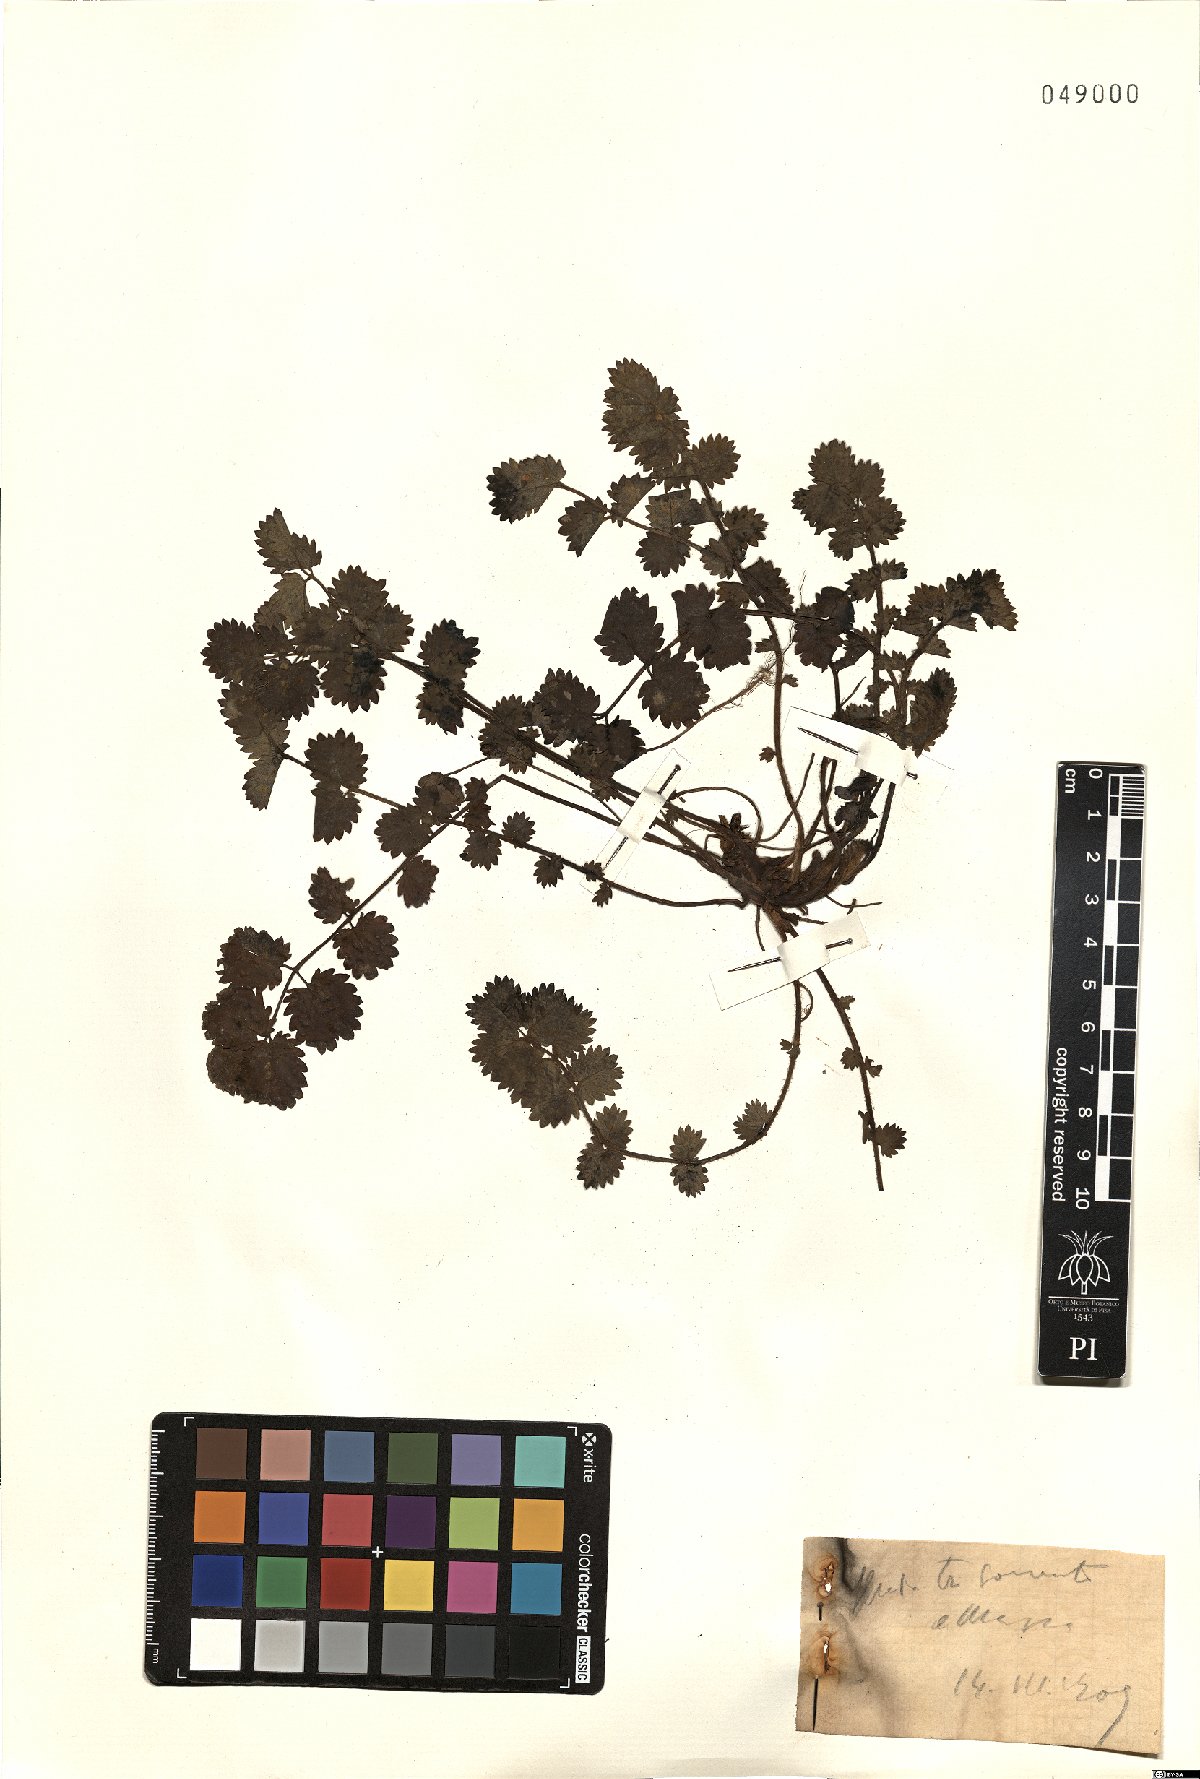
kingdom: Plantae
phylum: Tracheophyta
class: Magnoliopsida
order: Rosales
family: Rosaceae
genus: Poterium
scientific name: Poterium
